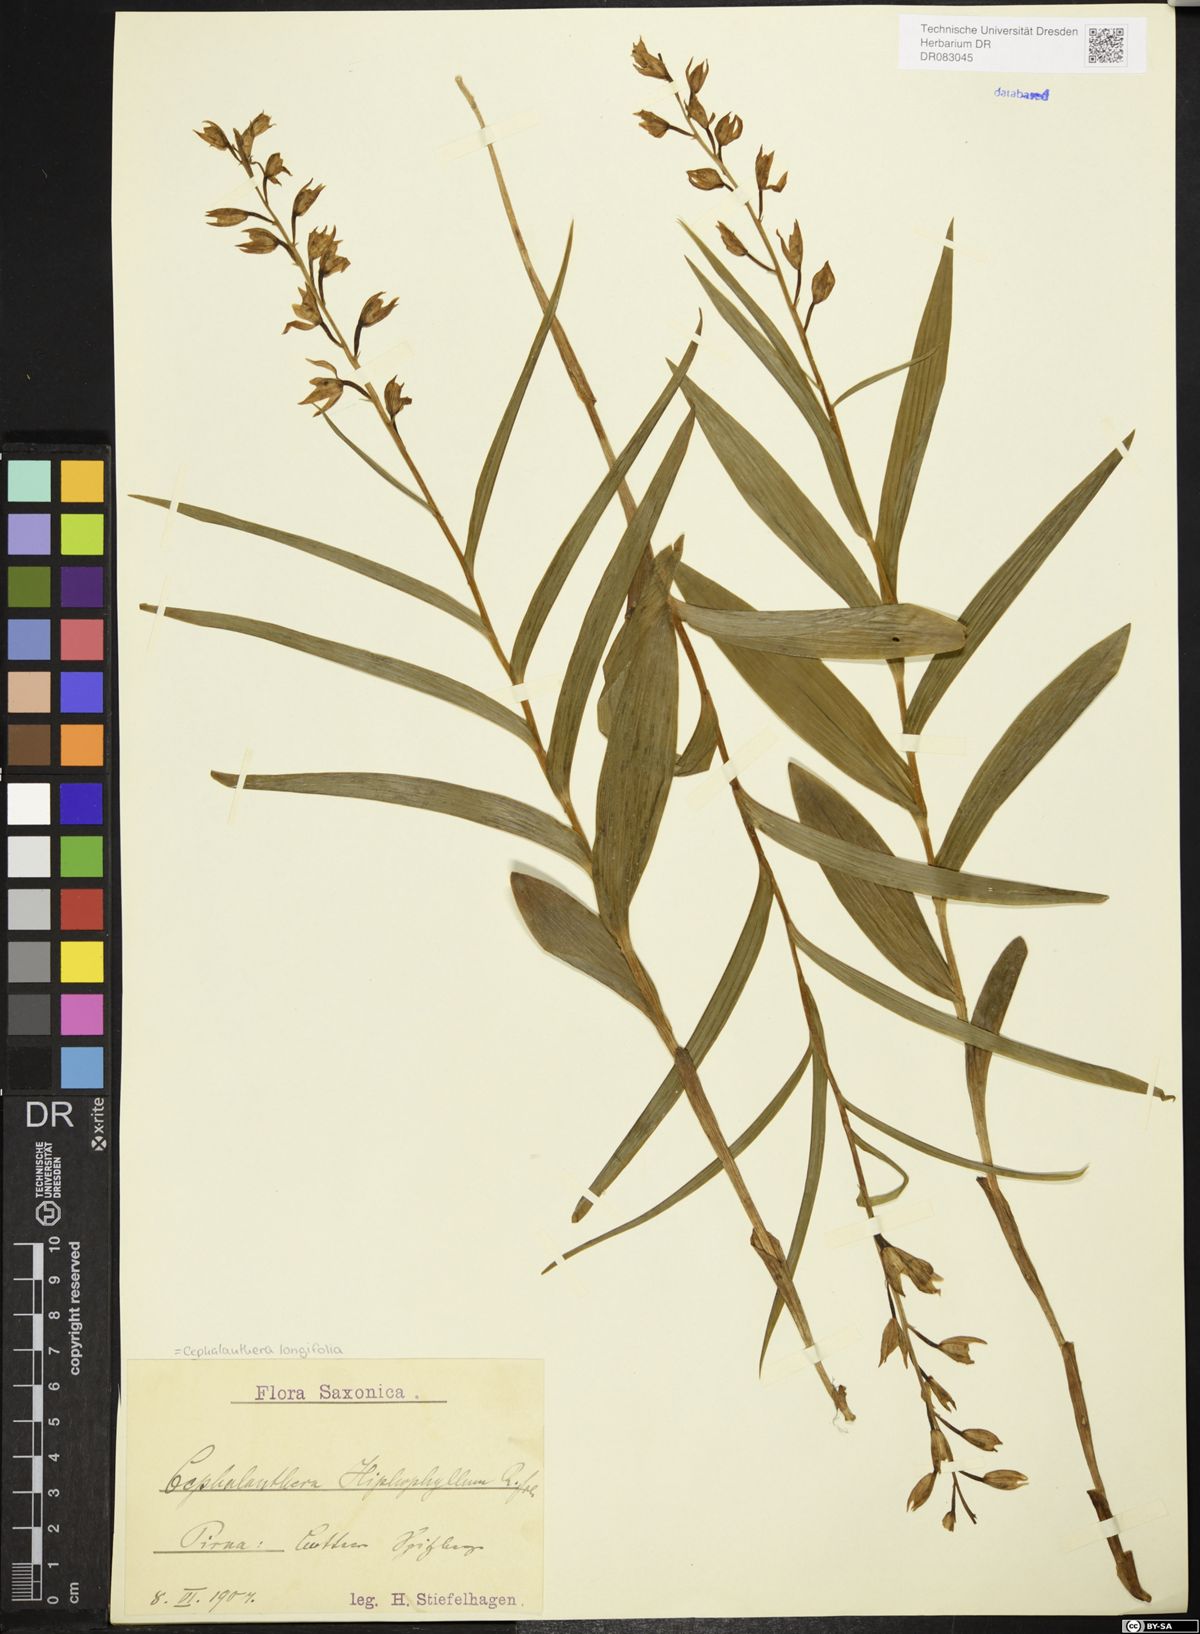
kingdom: Plantae
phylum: Tracheophyta
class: Liliopsida
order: Asparagales
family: Orchidaceae
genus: Cephalanthera
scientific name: Cephalanthera longifolia
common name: Narrow-leaved helleborine
